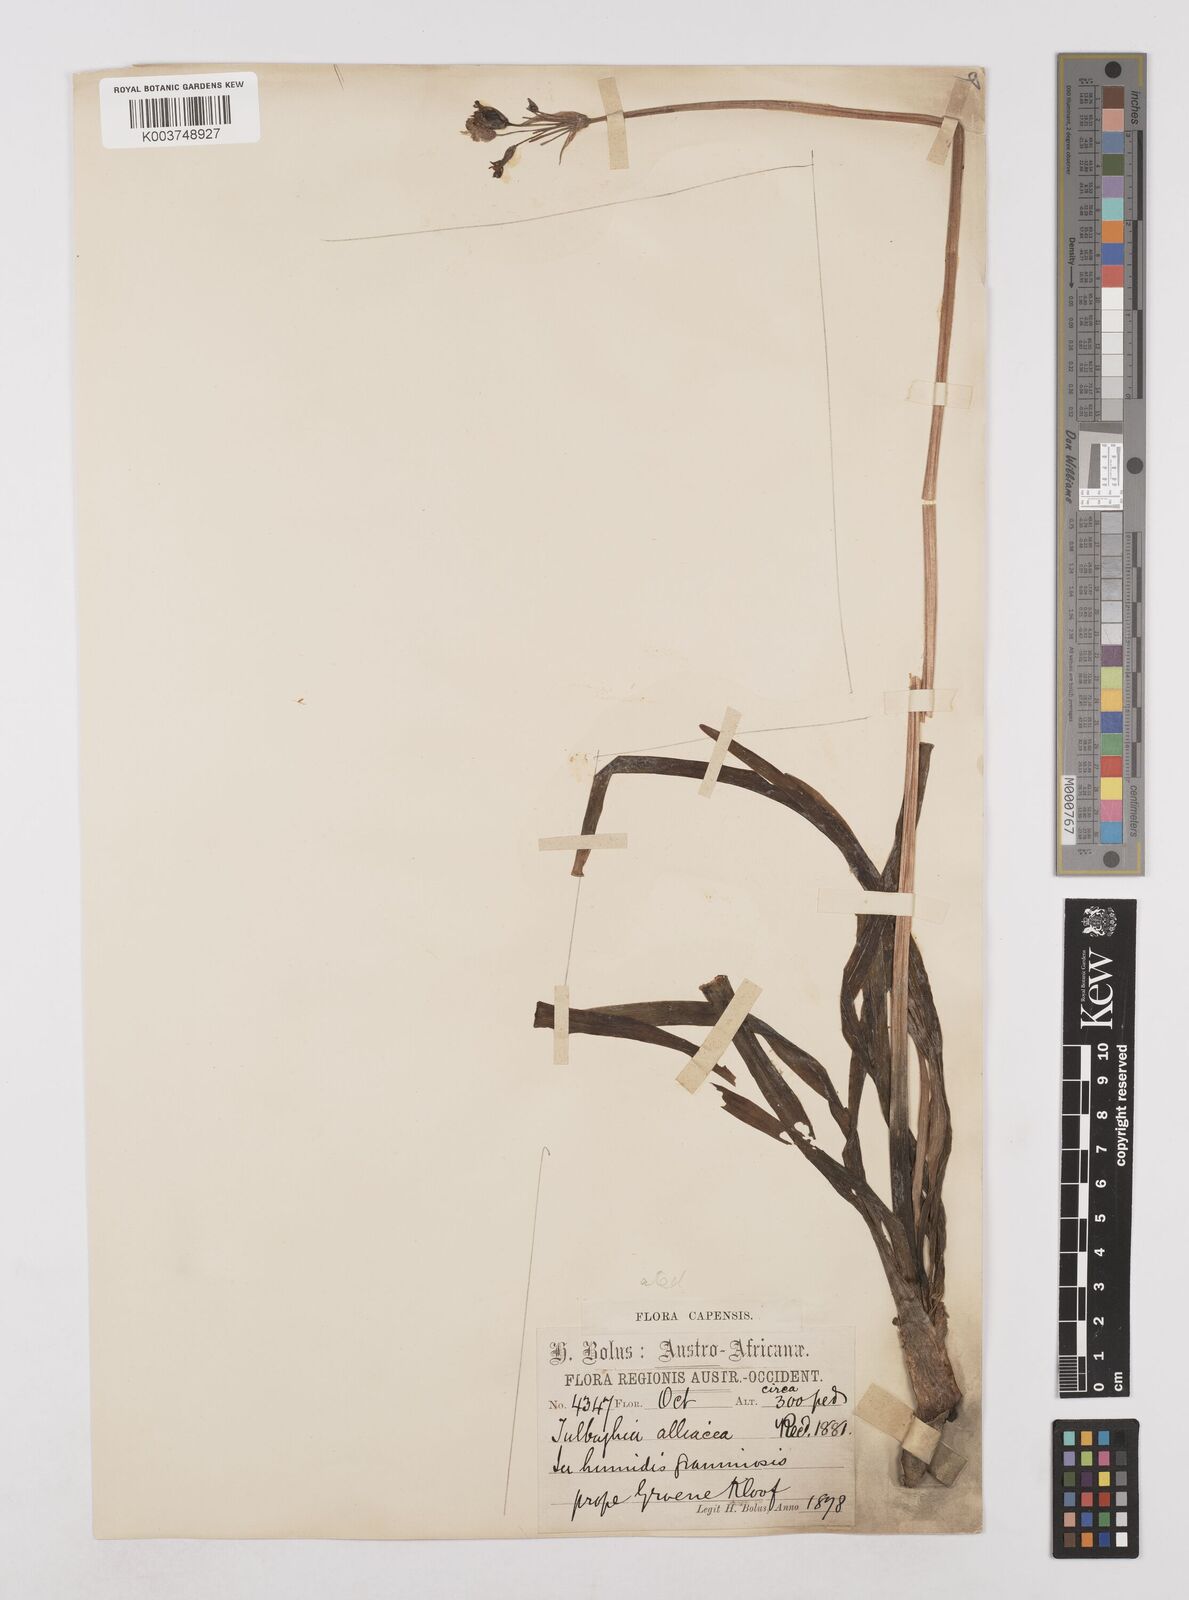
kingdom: Plantae
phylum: Tracheophyta
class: Liliopsida
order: Asparagales
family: Amaryllidaceae
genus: Tulbaghia
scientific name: Tulbaghia capensis
